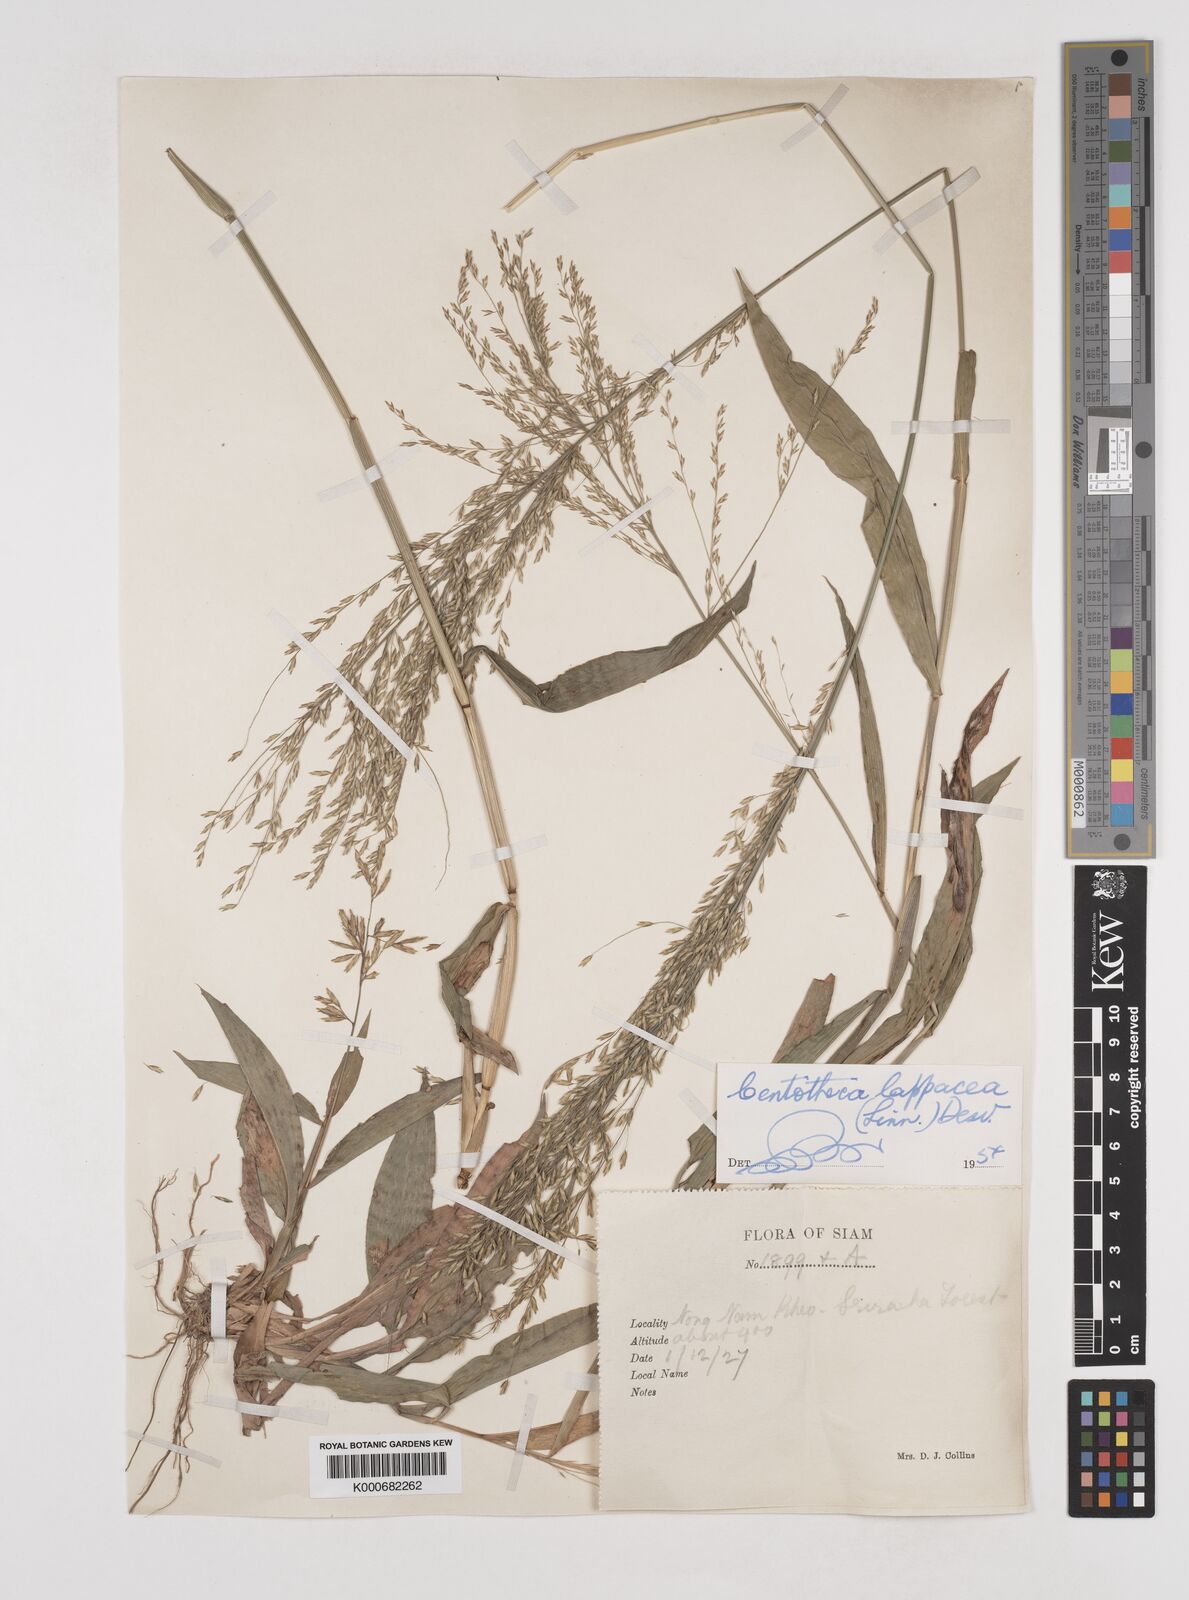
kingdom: Plantae
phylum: Tracheophyta
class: Liliopsida
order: Poales
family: Poaceae
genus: Centotheca
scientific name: Centotheca lappacea
